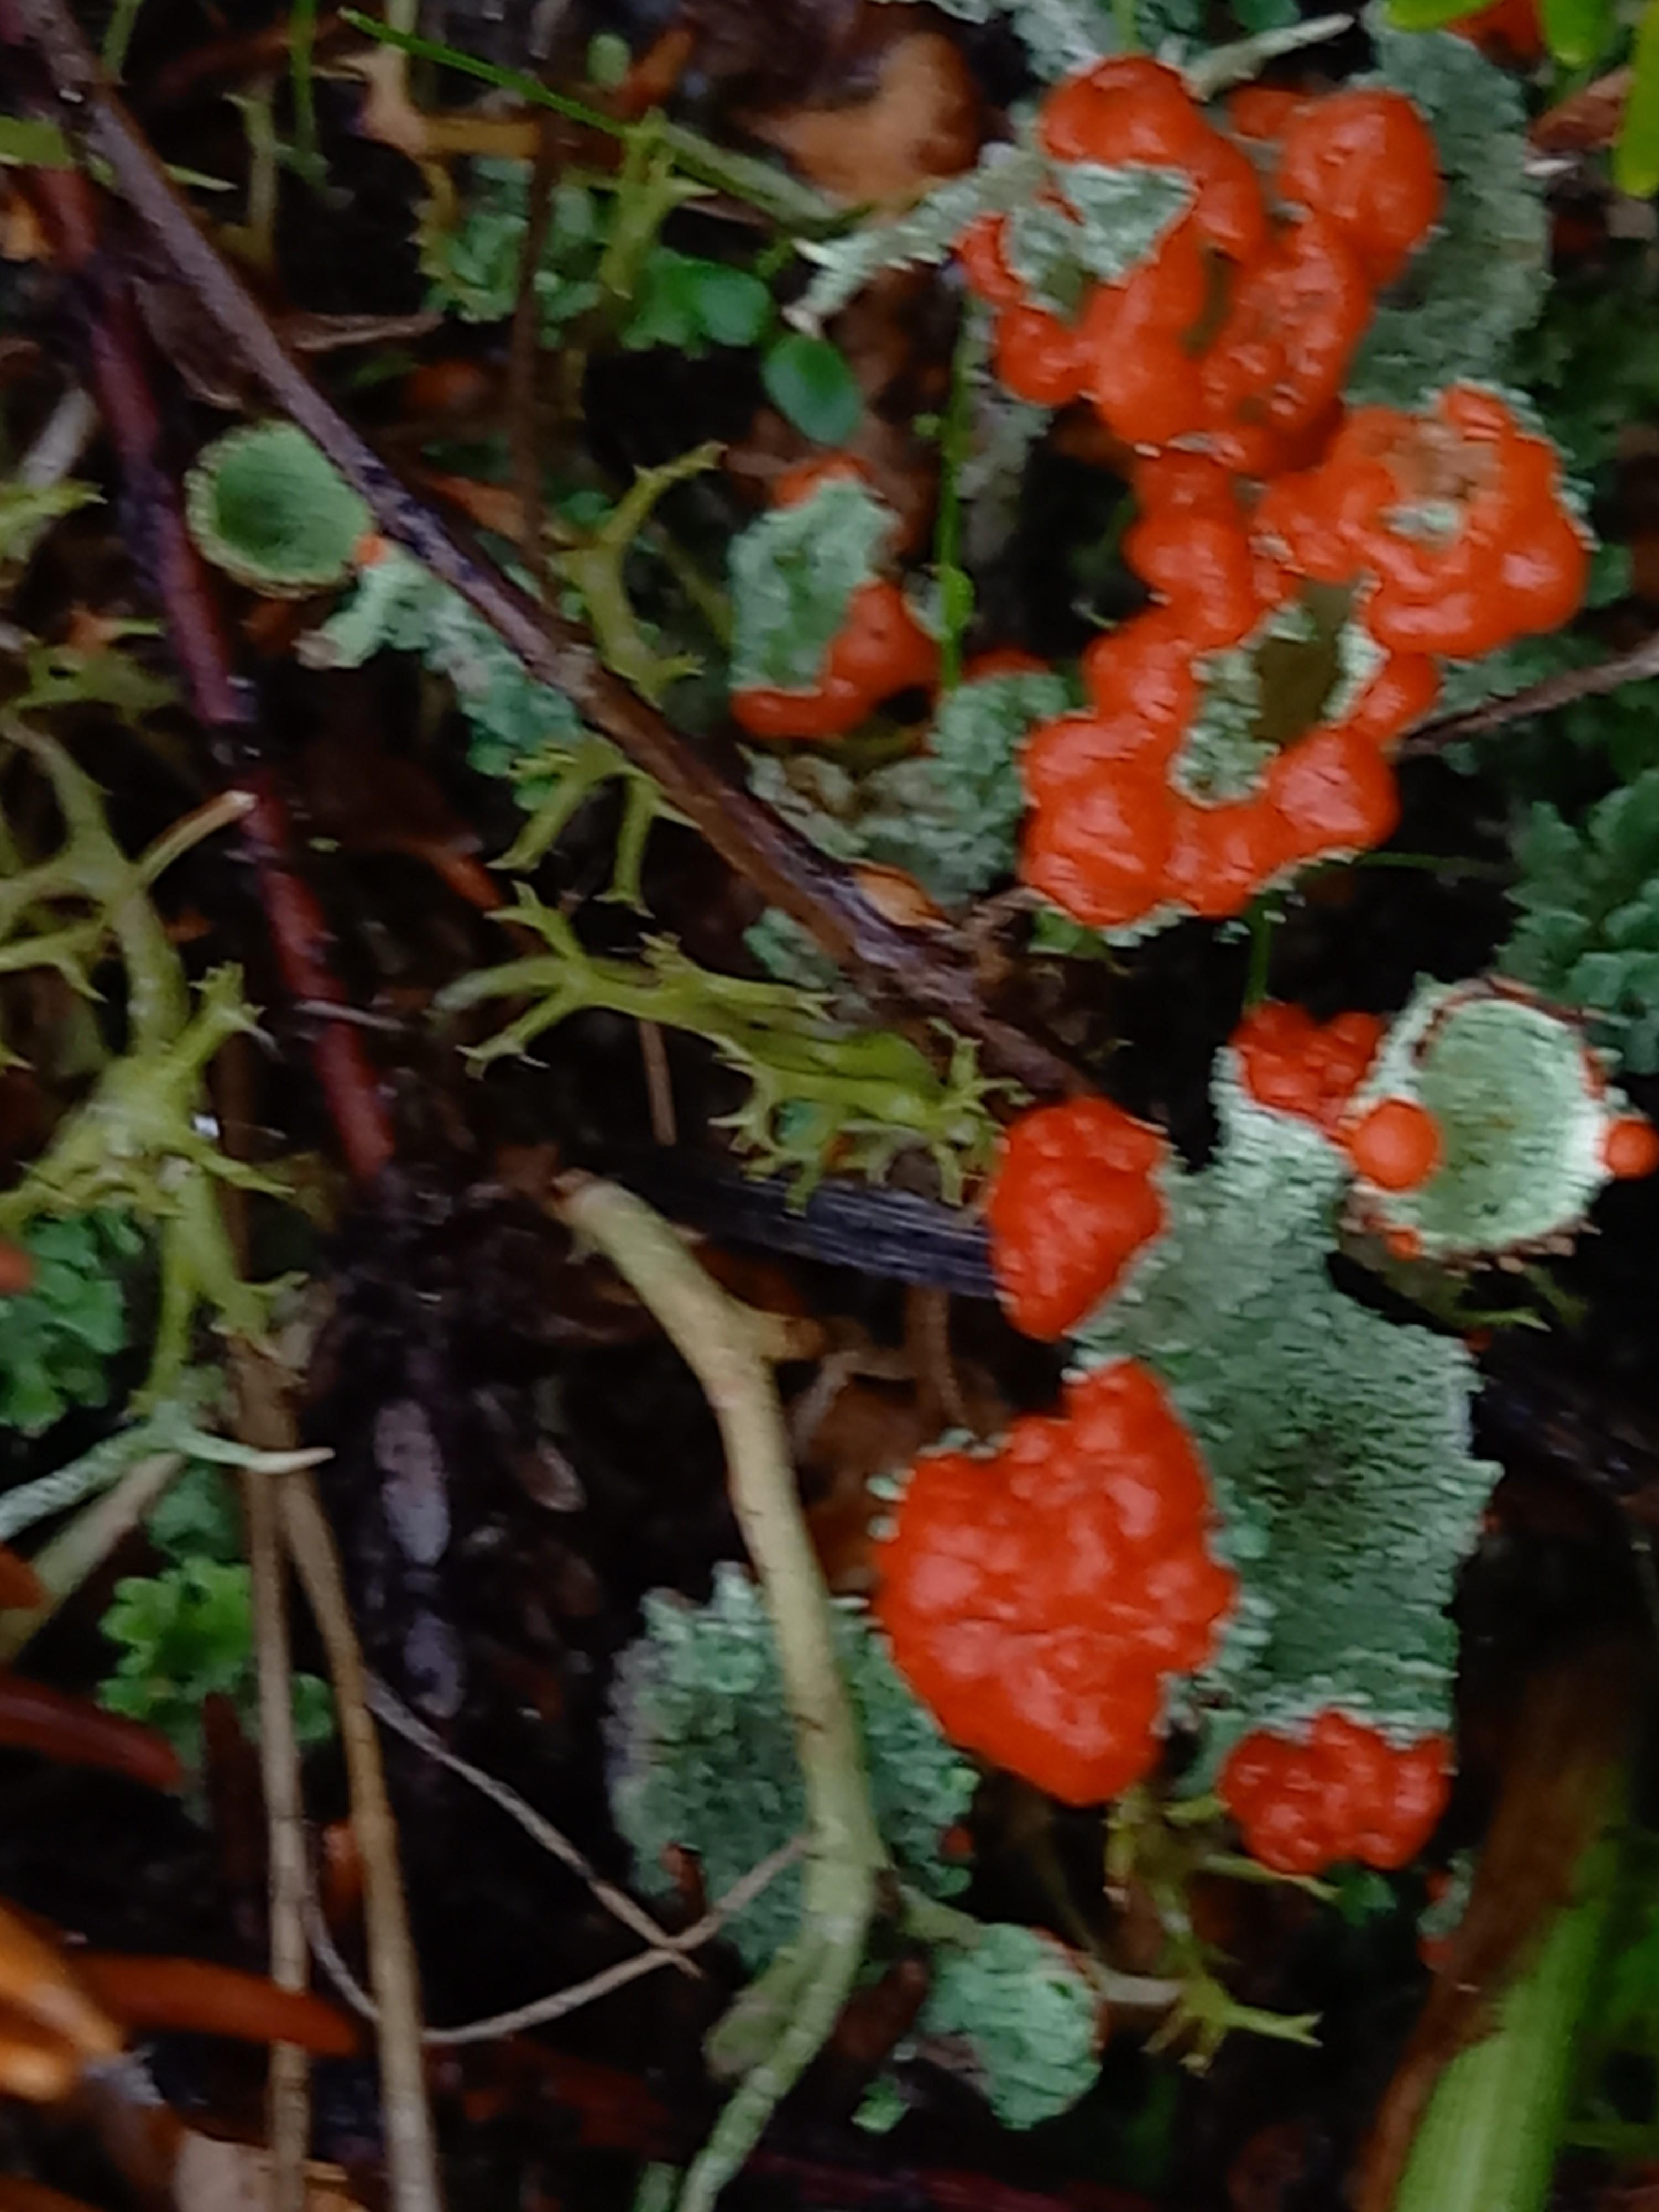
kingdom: Fungi
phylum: Ascomycota
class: Lecanoromycetes
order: Lecanorales
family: Cladoniaceae
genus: Cladonia
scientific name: Cladonia diversa
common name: rød bægerlav
